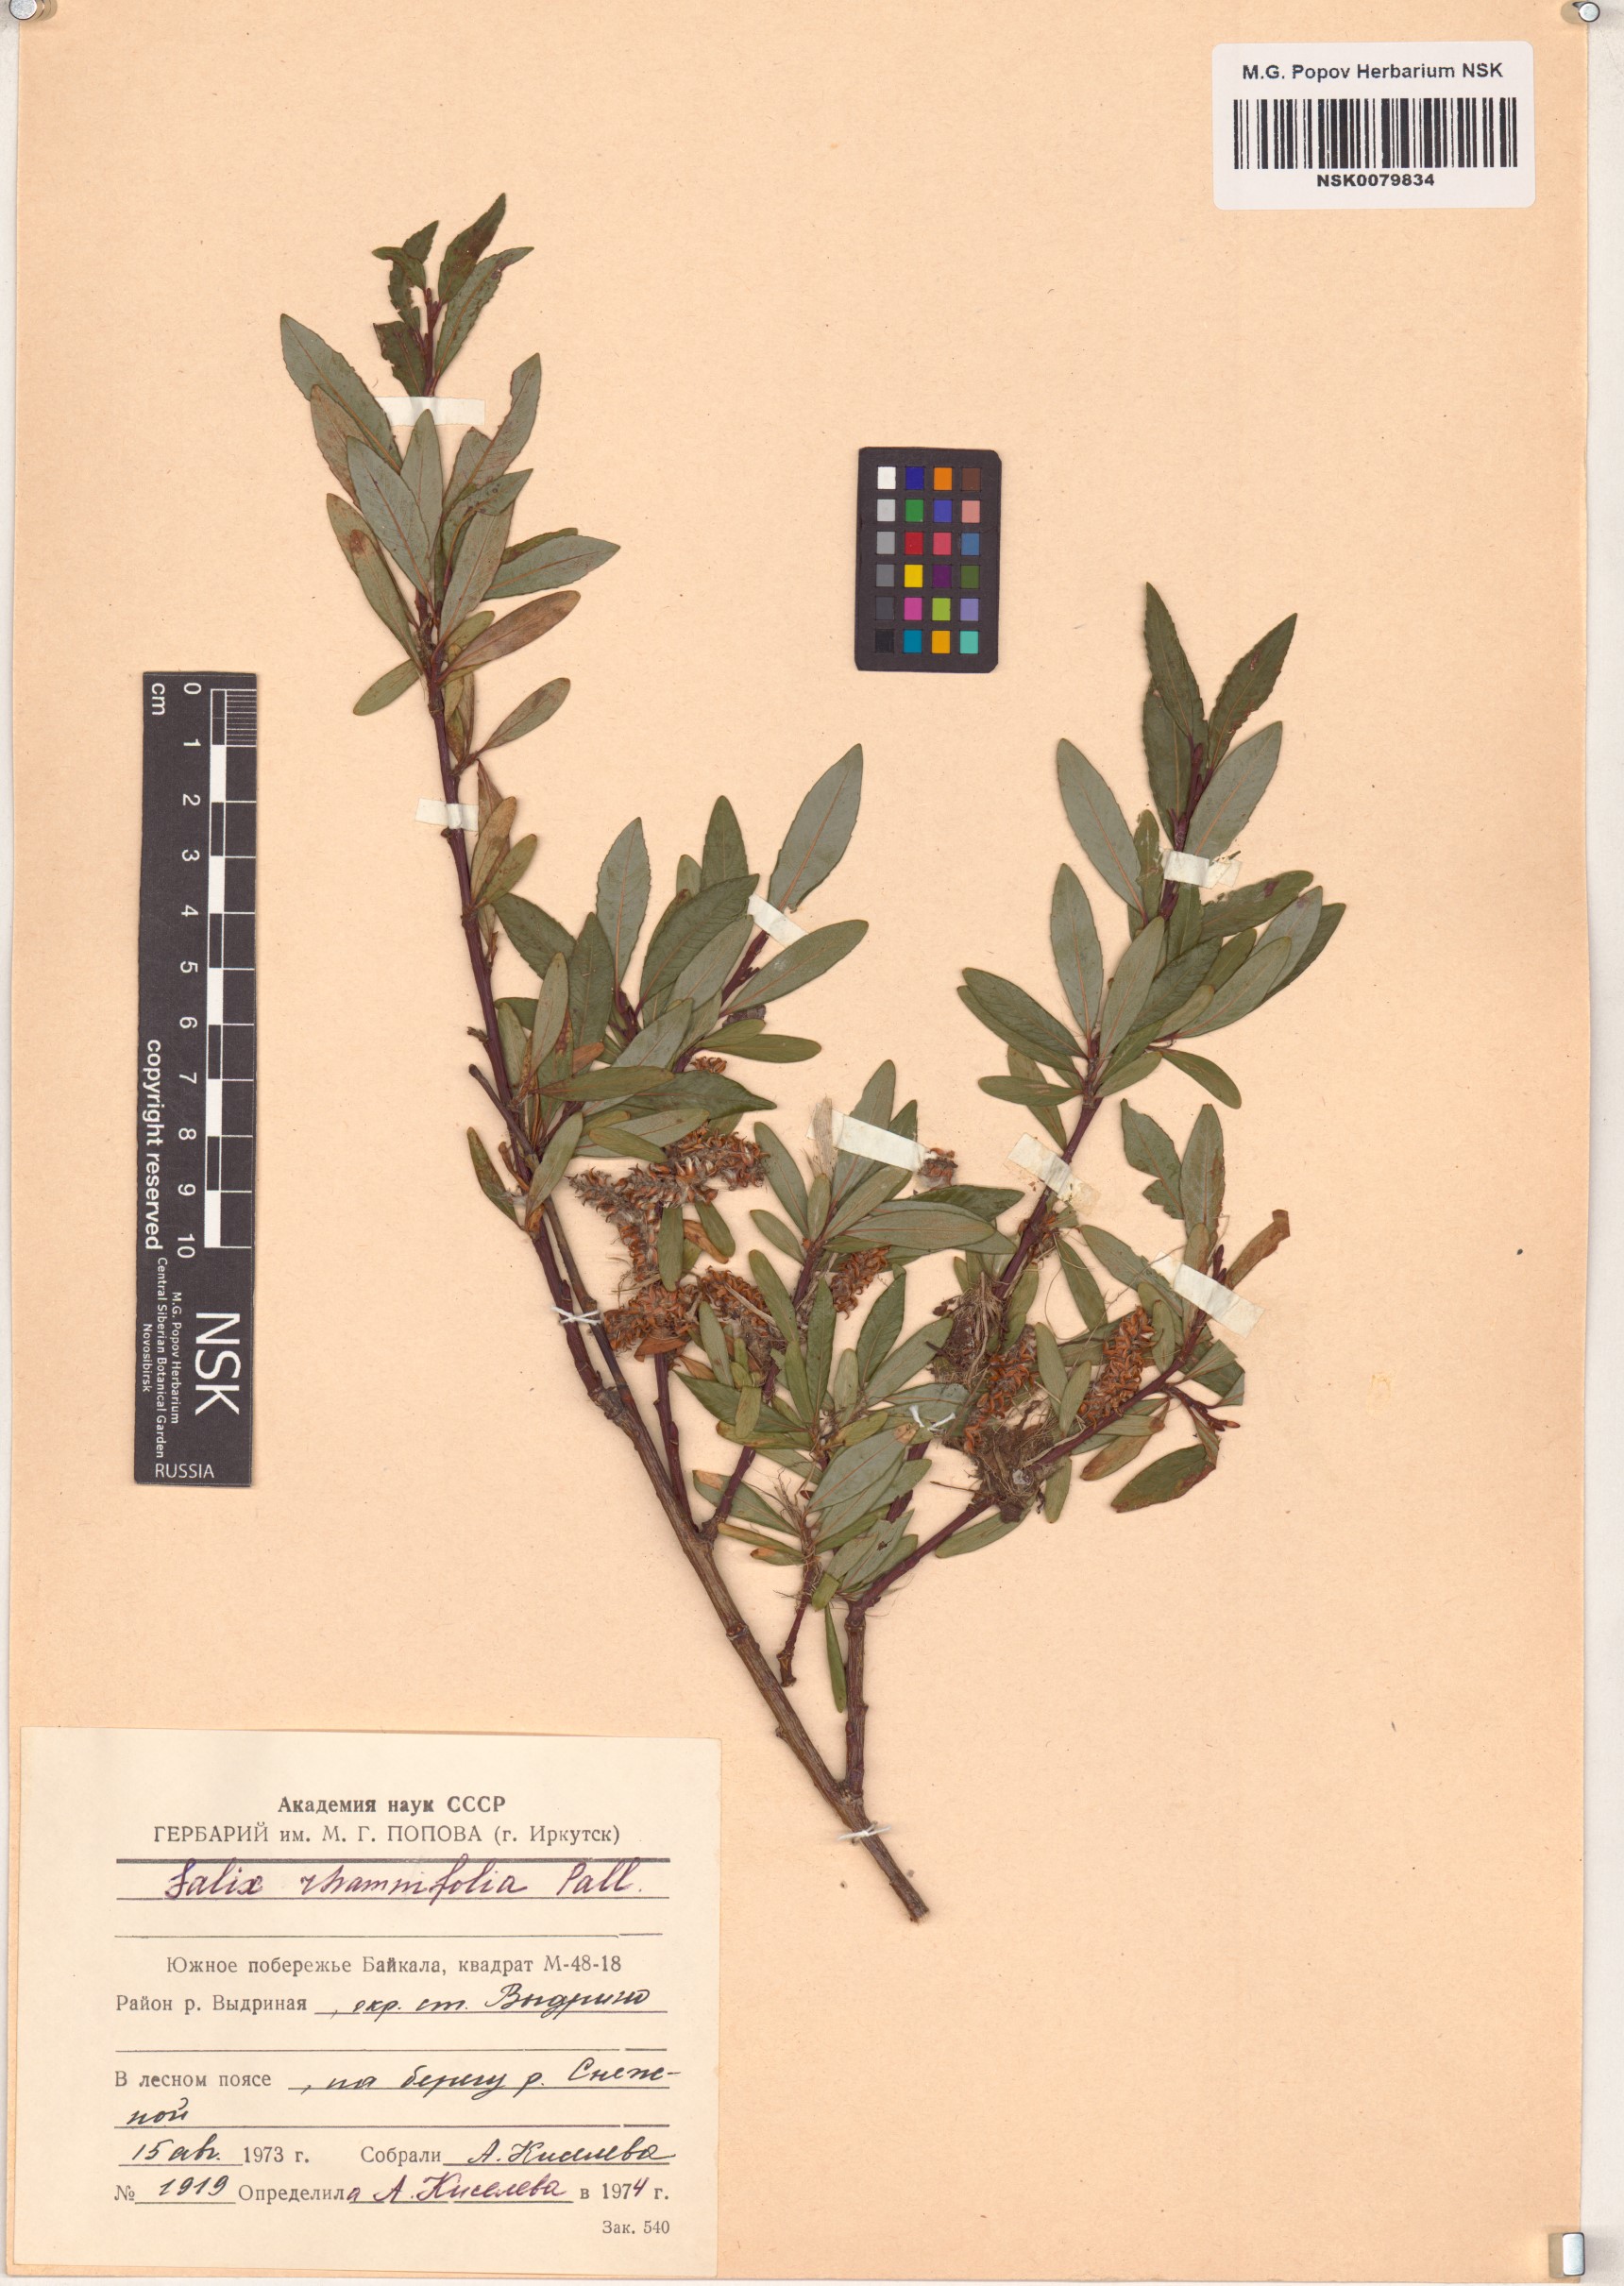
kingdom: Plantae
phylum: Tracheophyta
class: Magnoliopsida
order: Malpighiales
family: Salicaceae
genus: Salix
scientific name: Salix rhamnifolia
